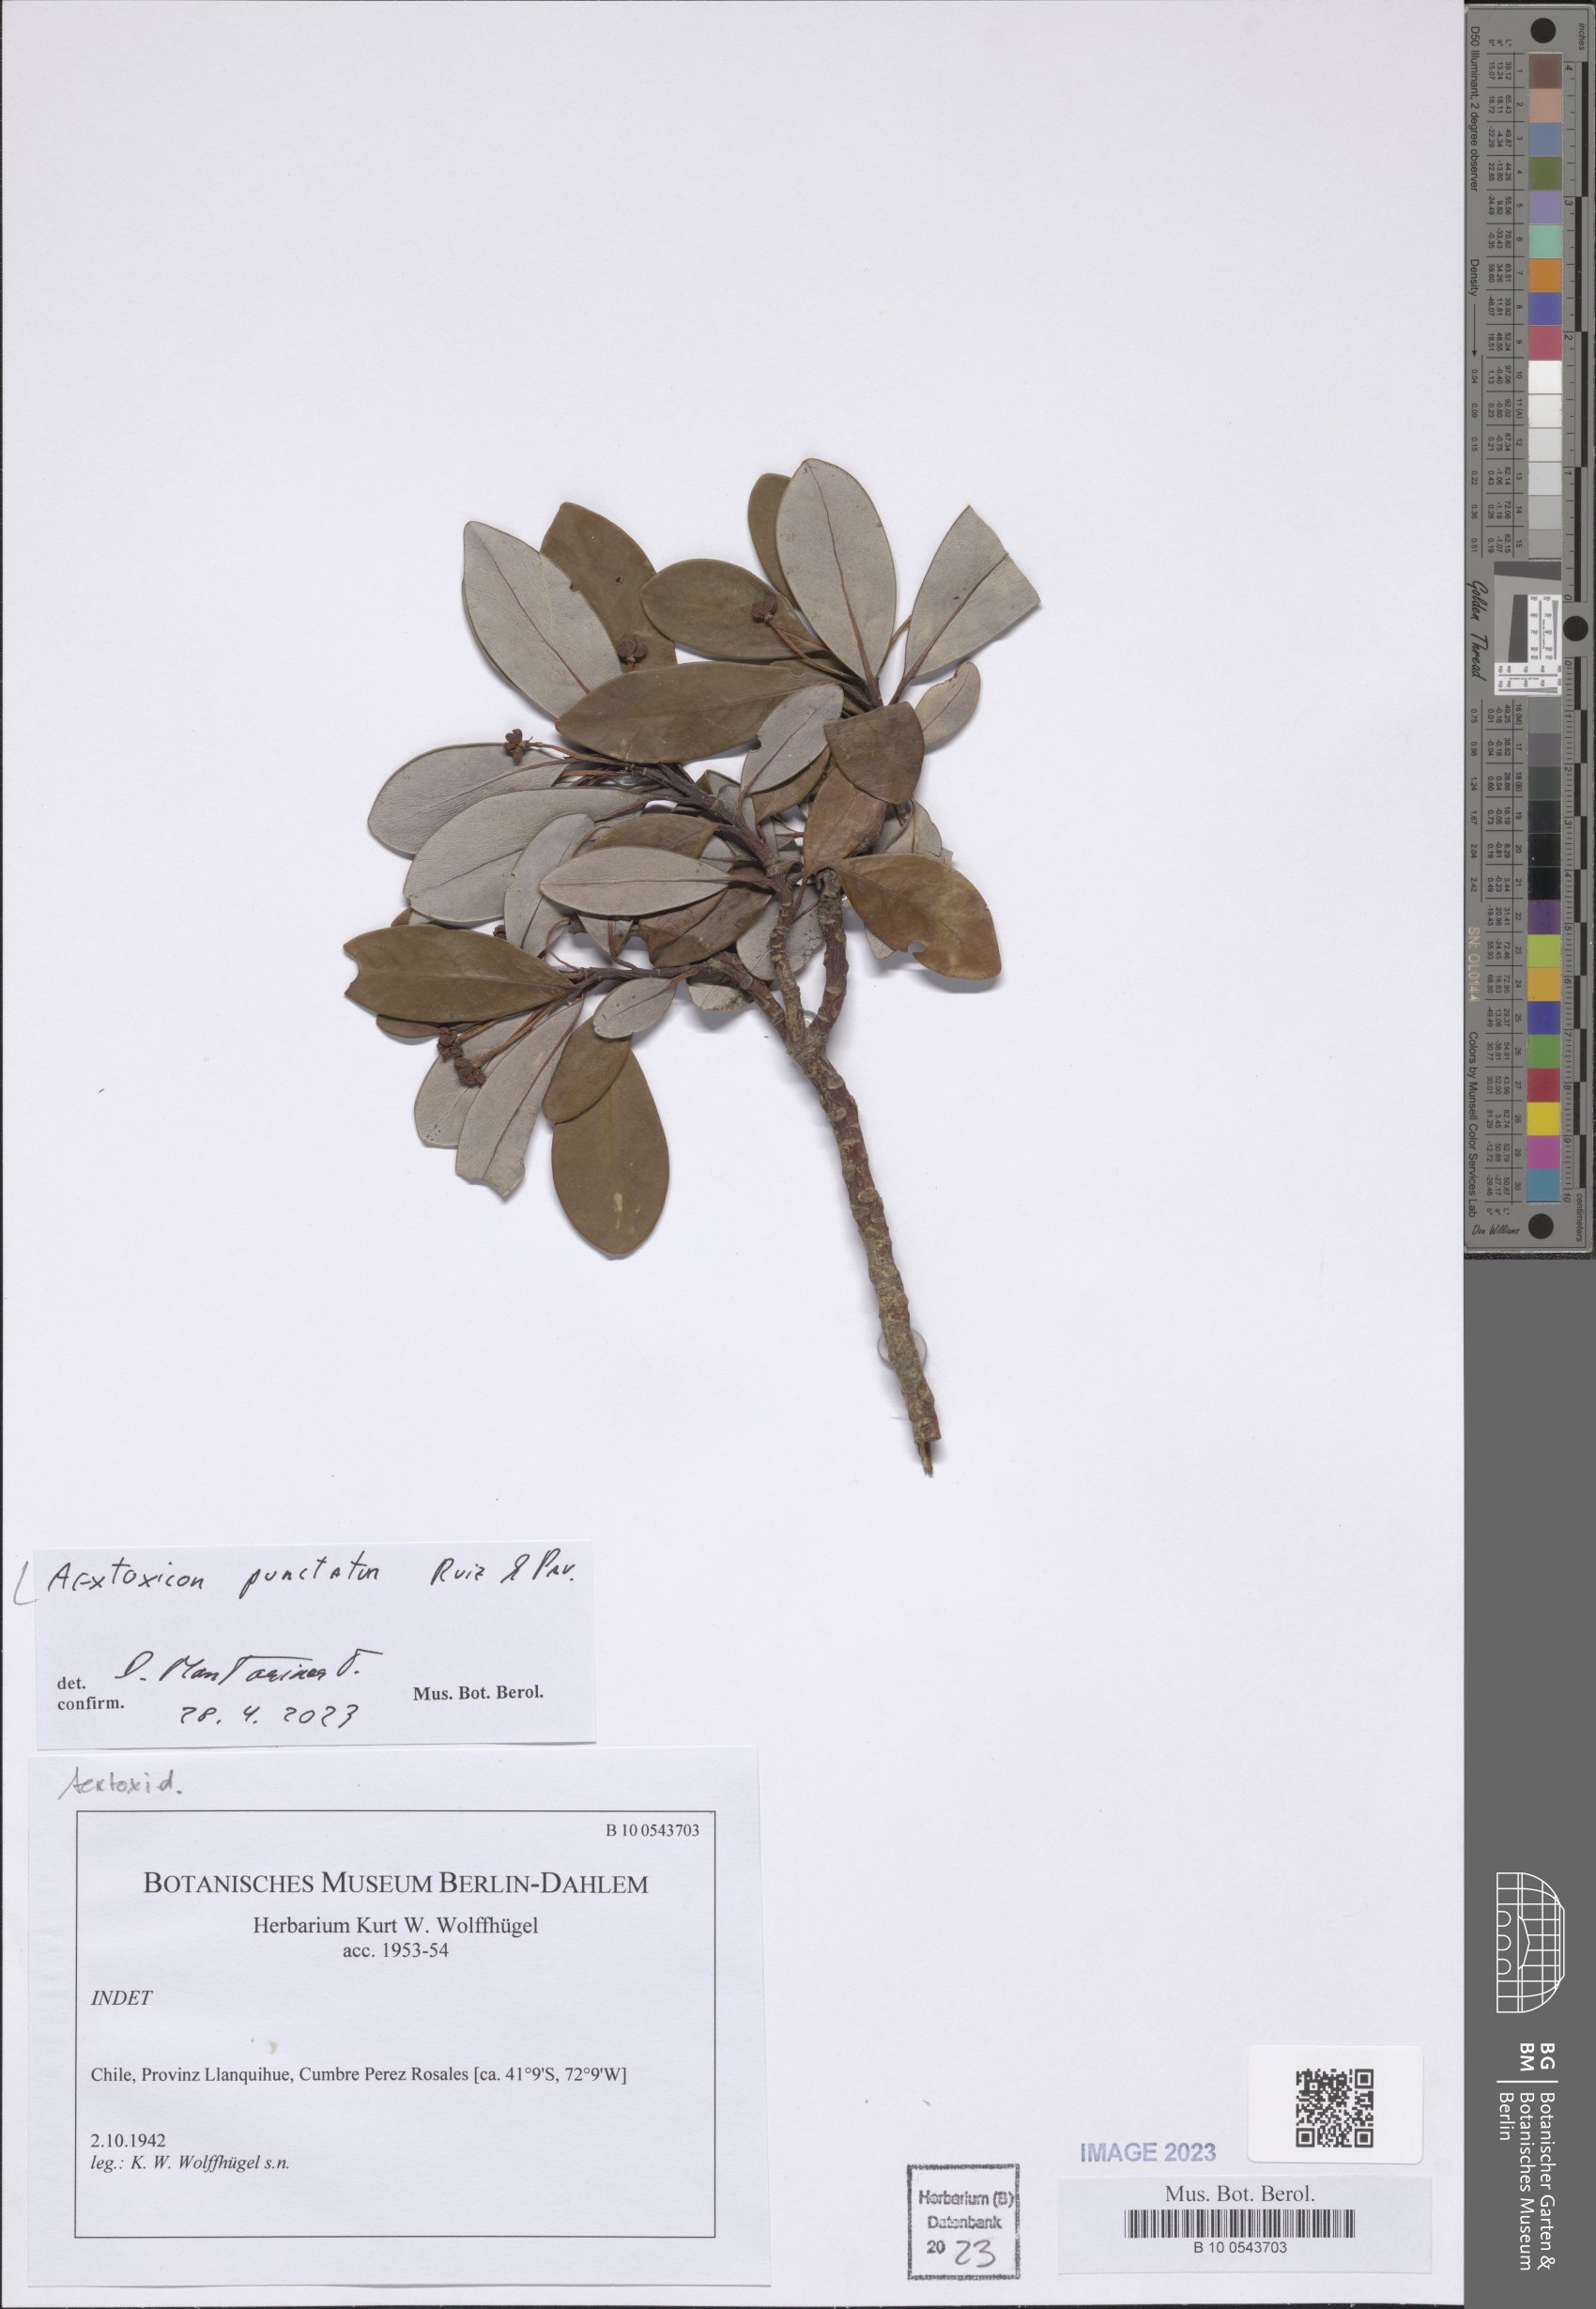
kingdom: Plantae
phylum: Tracheophyta
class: Magnoliopsida
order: Berberidopsidales
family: Aextoxicaceae
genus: Aextoxicon
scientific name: Aextoxicon punctatum
